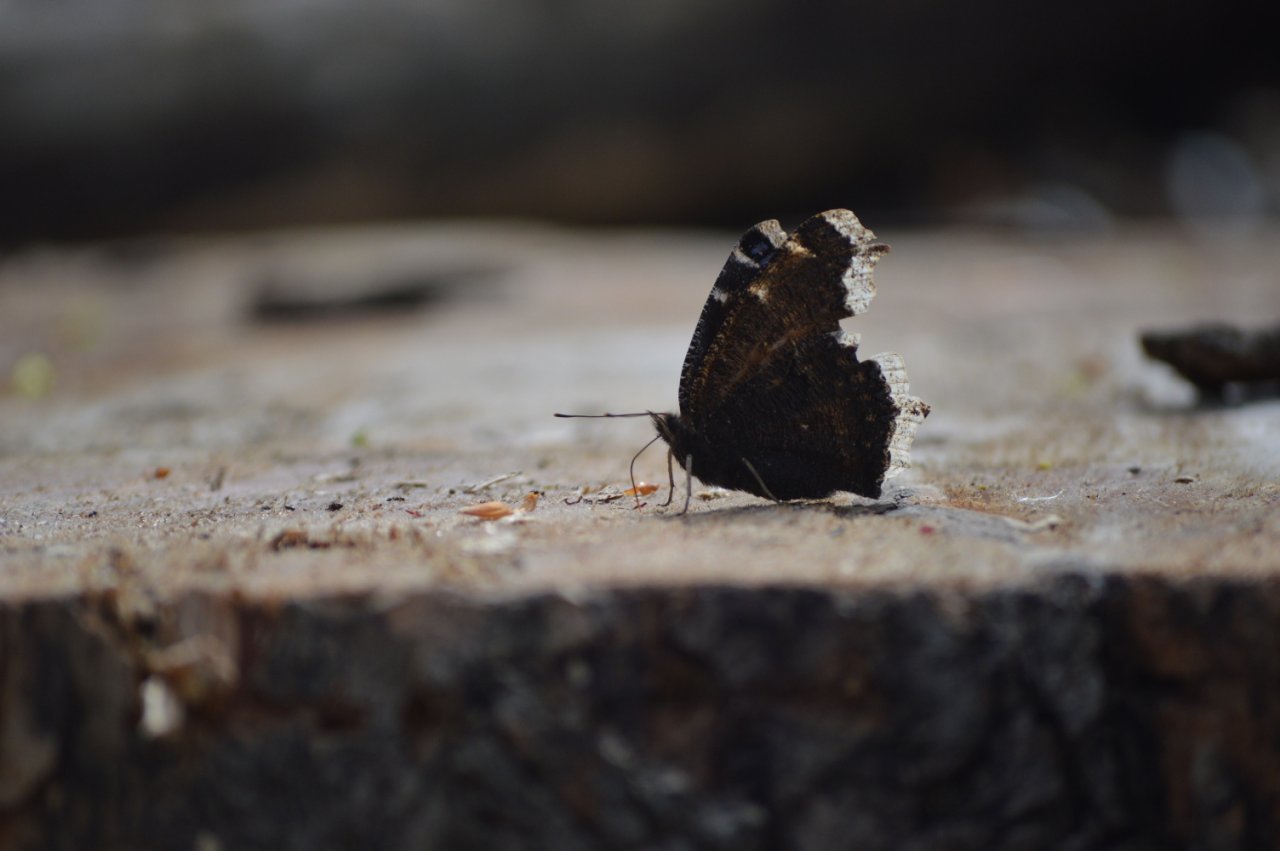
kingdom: Animalia
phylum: Arthropoda
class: Insecta
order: Lepidoptera
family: Nymphalidae
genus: Nymphalis
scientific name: Nymphalis antiopa
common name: Mourning Cloak
